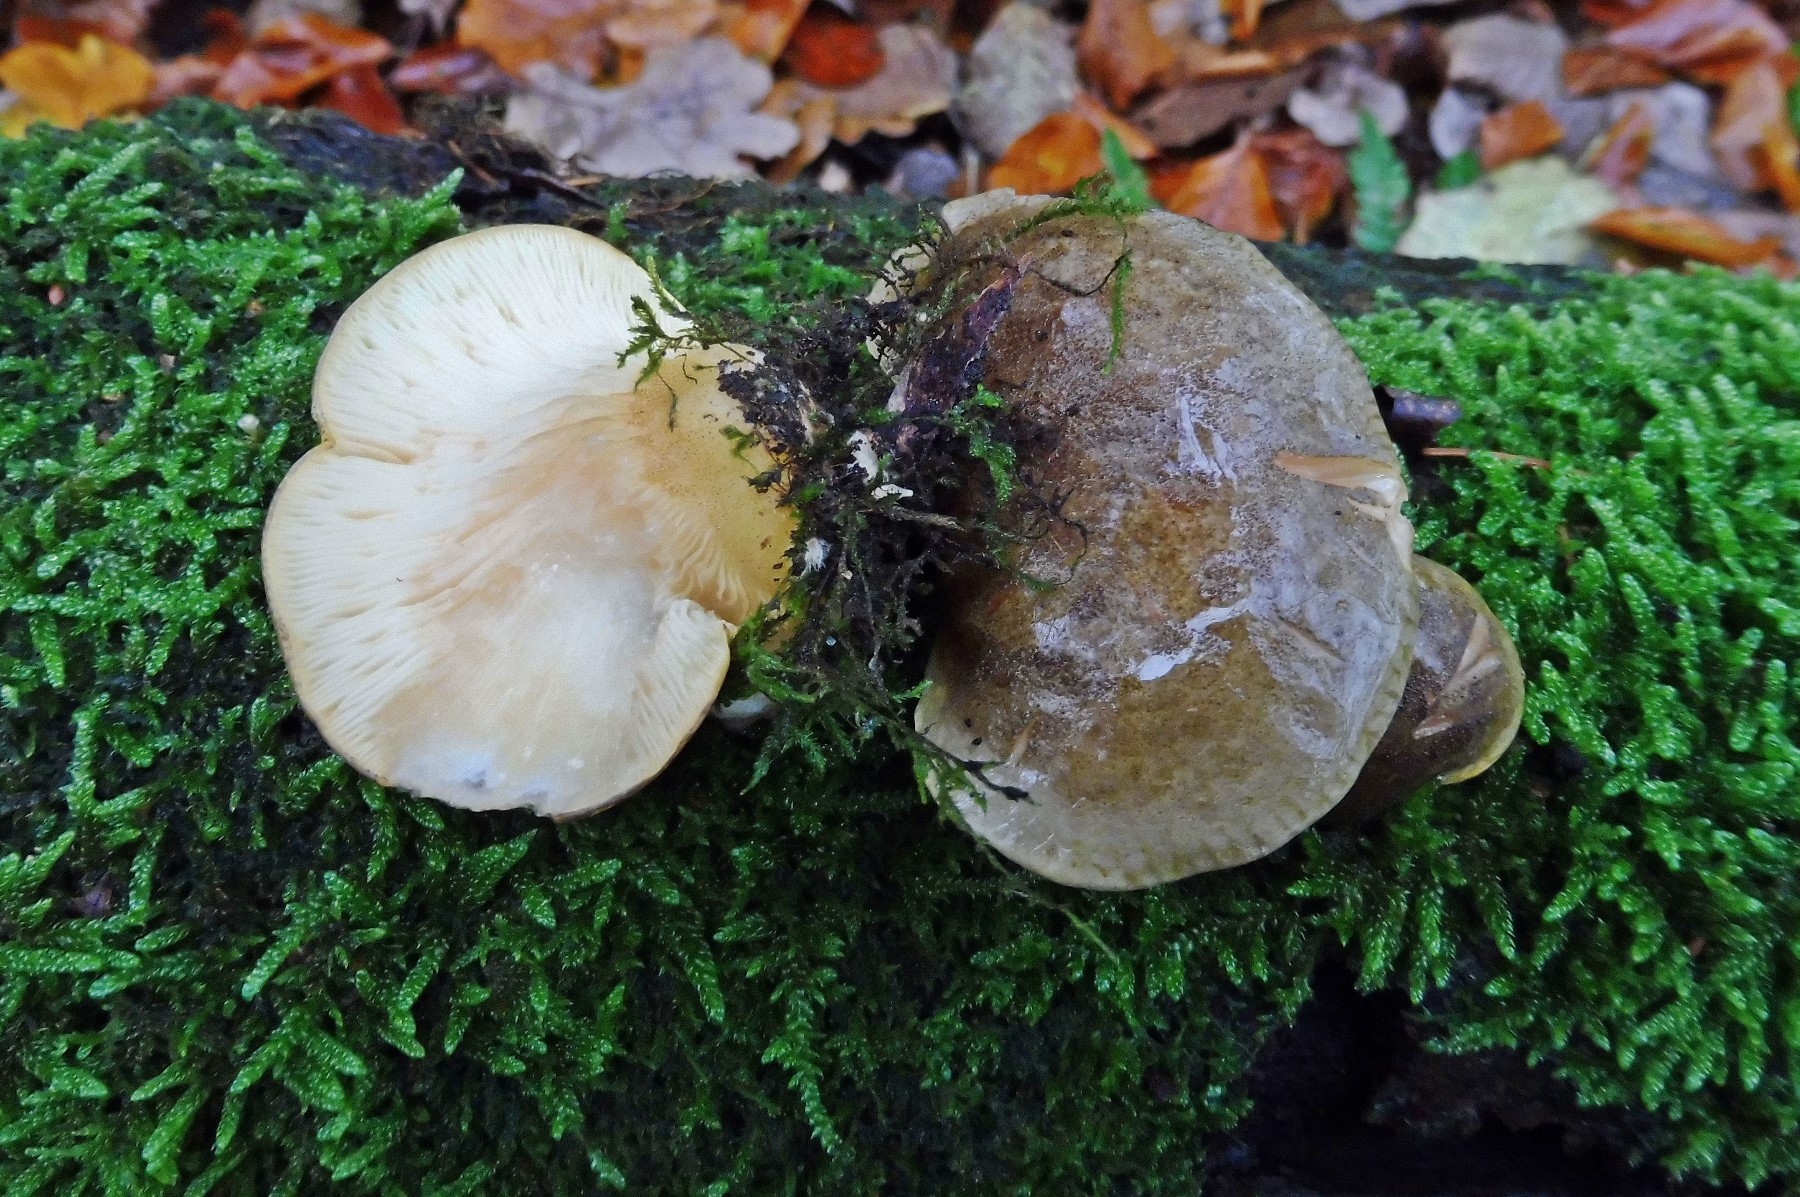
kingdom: Fungi
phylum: Basidiomycota
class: Agaricomycetes
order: Agaricales
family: Sarcomyxaceae
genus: Sarcomyxa
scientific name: Sarcomyxa serotina
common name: gummihat
